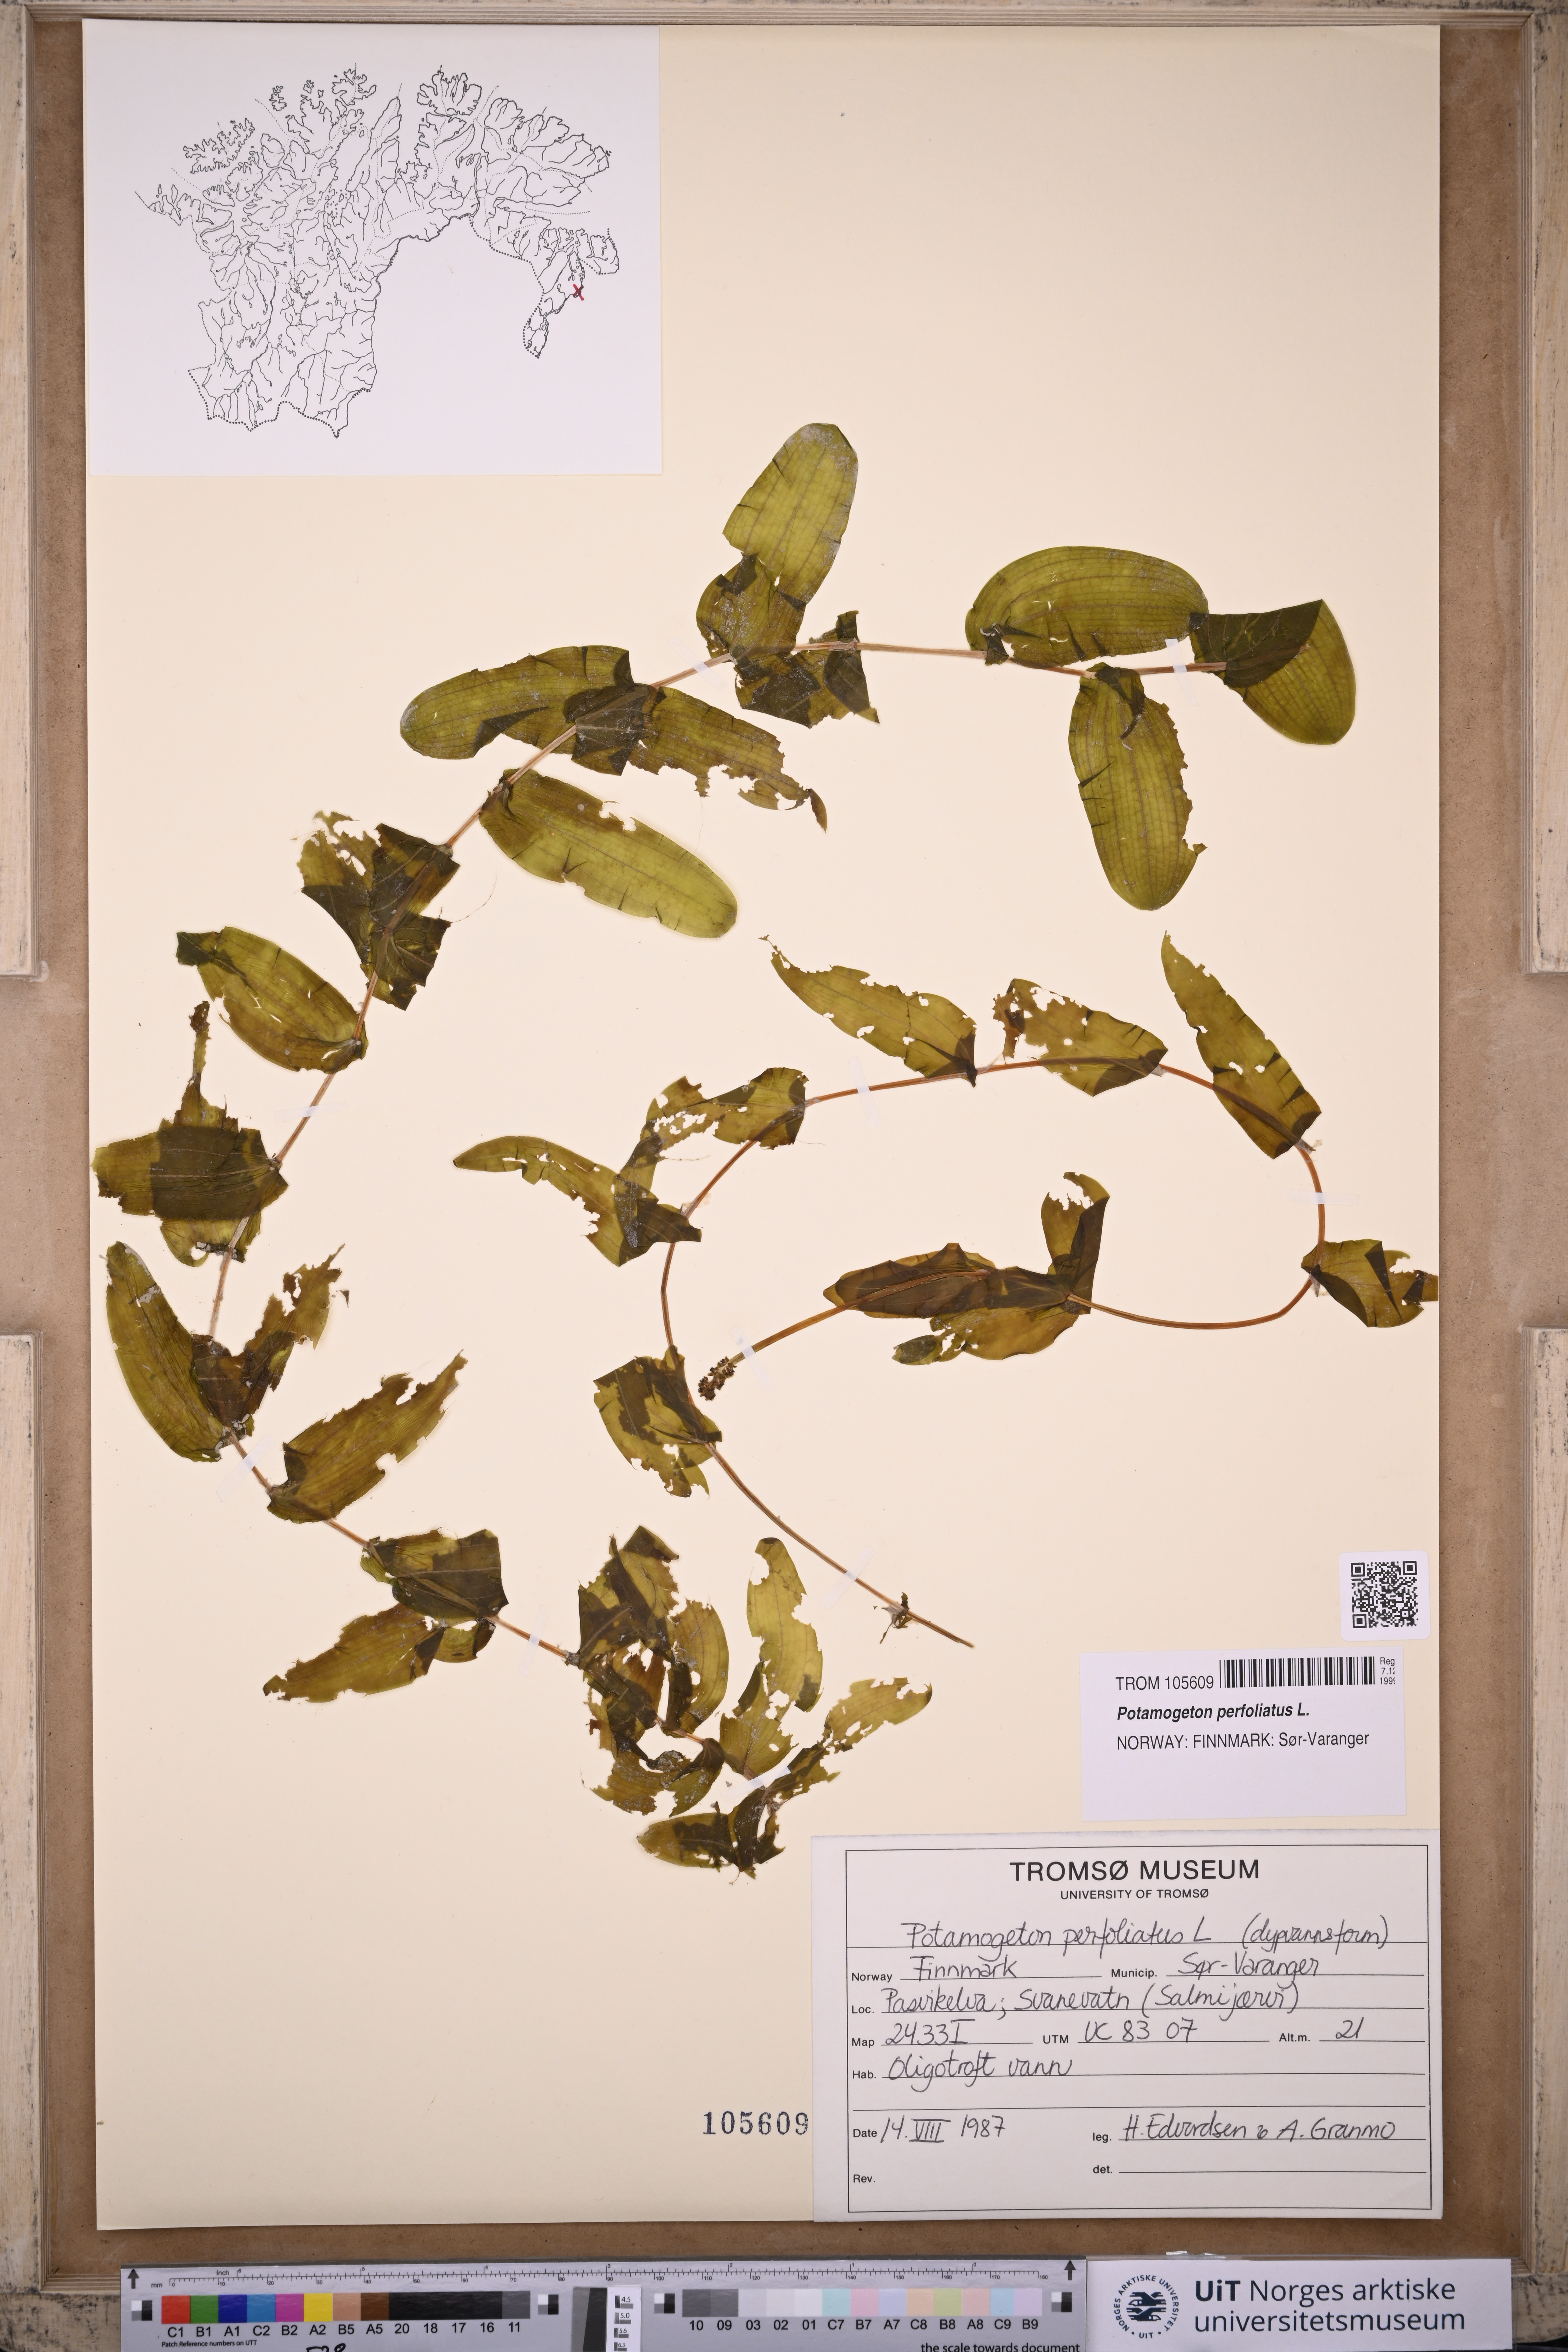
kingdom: Plantae
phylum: Tracheophyta
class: Liliopsida
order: Alismatales
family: Potamogetonaceae
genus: Potamogeton
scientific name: Potamogeton perfoliatus
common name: Perfoliate pondweed
